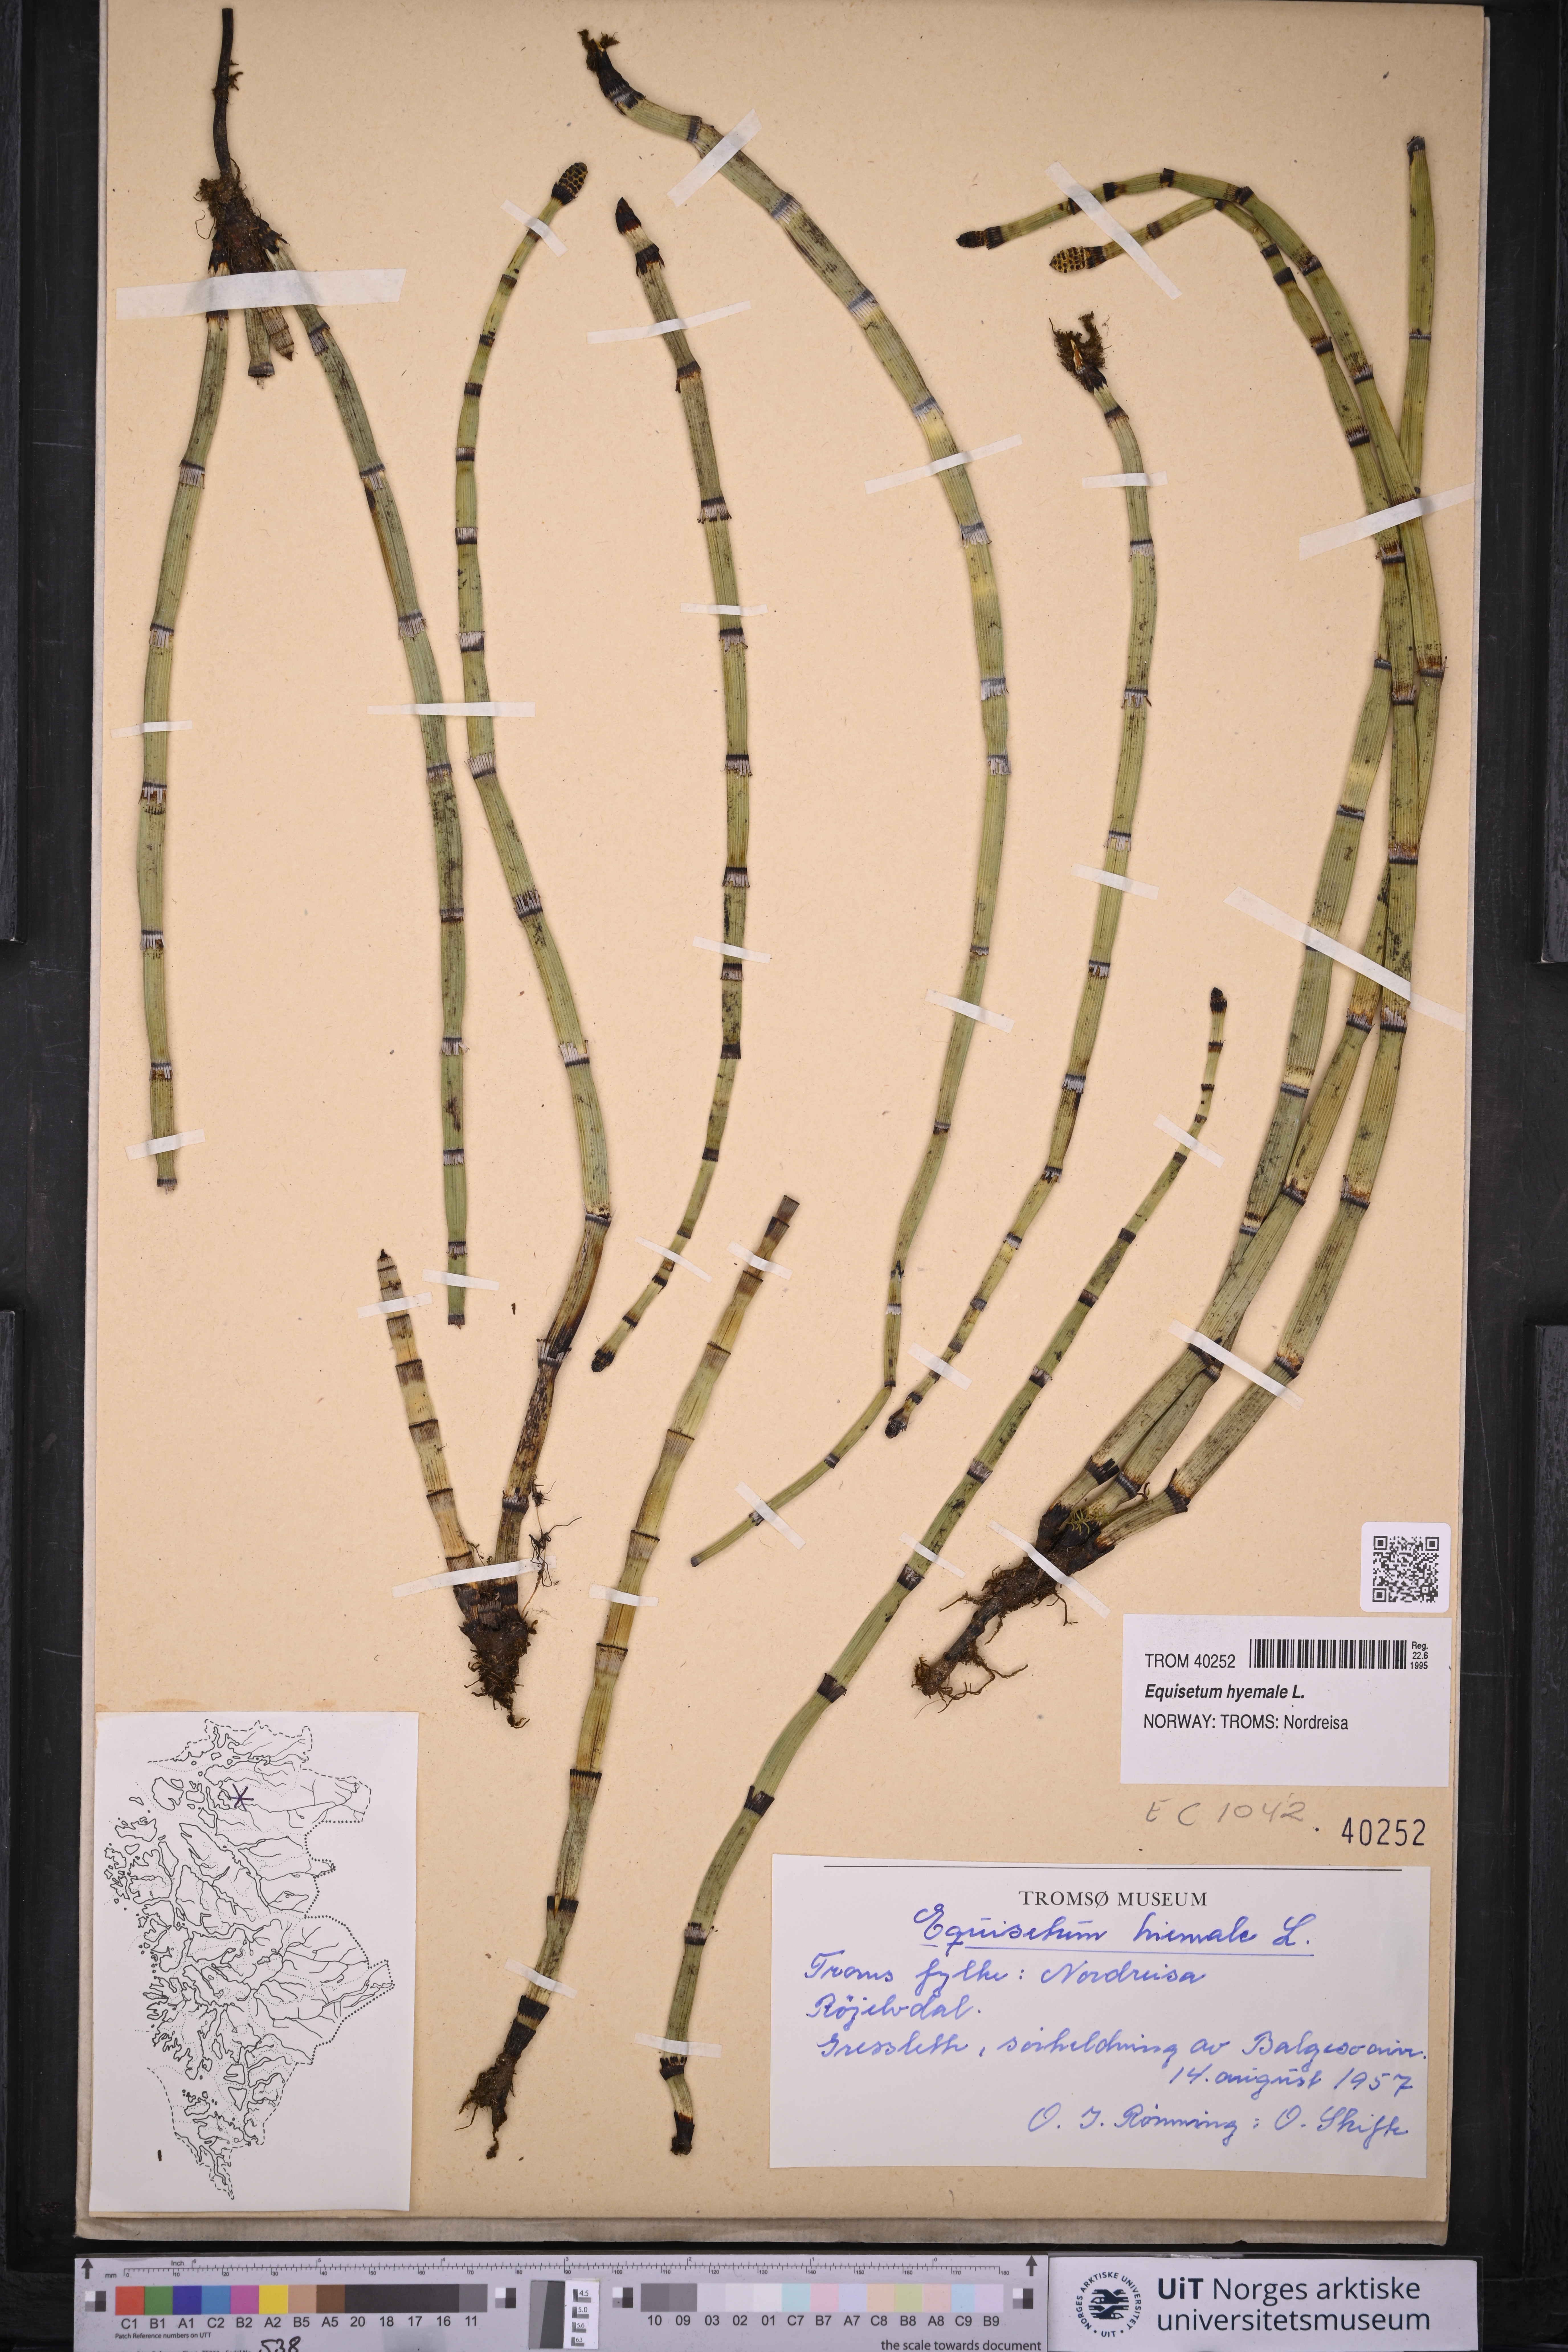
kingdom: Plantae
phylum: Tracheophyta
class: Polypodiopsida
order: Equisetales
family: Equisetaceae
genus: Equisetum
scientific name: Equisetum hyemale
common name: Rough horsetail
